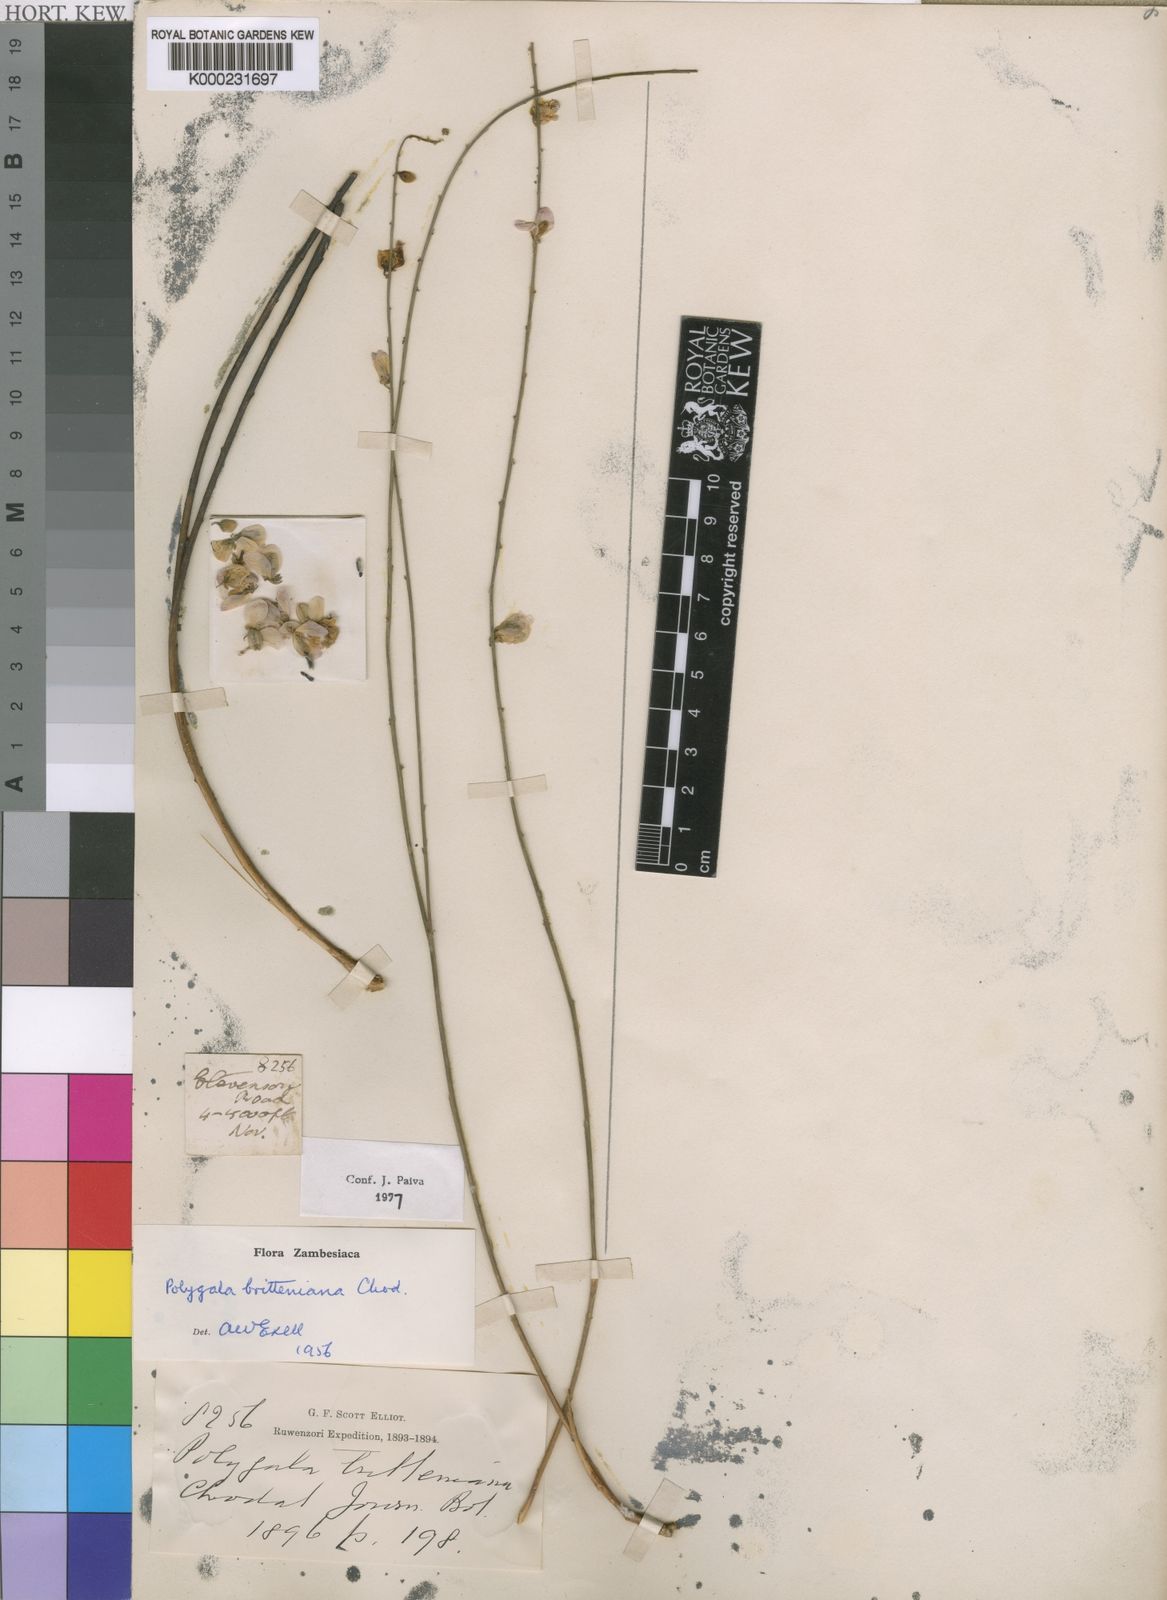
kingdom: Plantae
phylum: Tracheophyta
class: Magnoliopsida
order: Fabales
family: Polygalaceae
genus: Polygala
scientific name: Polygala britteniana
